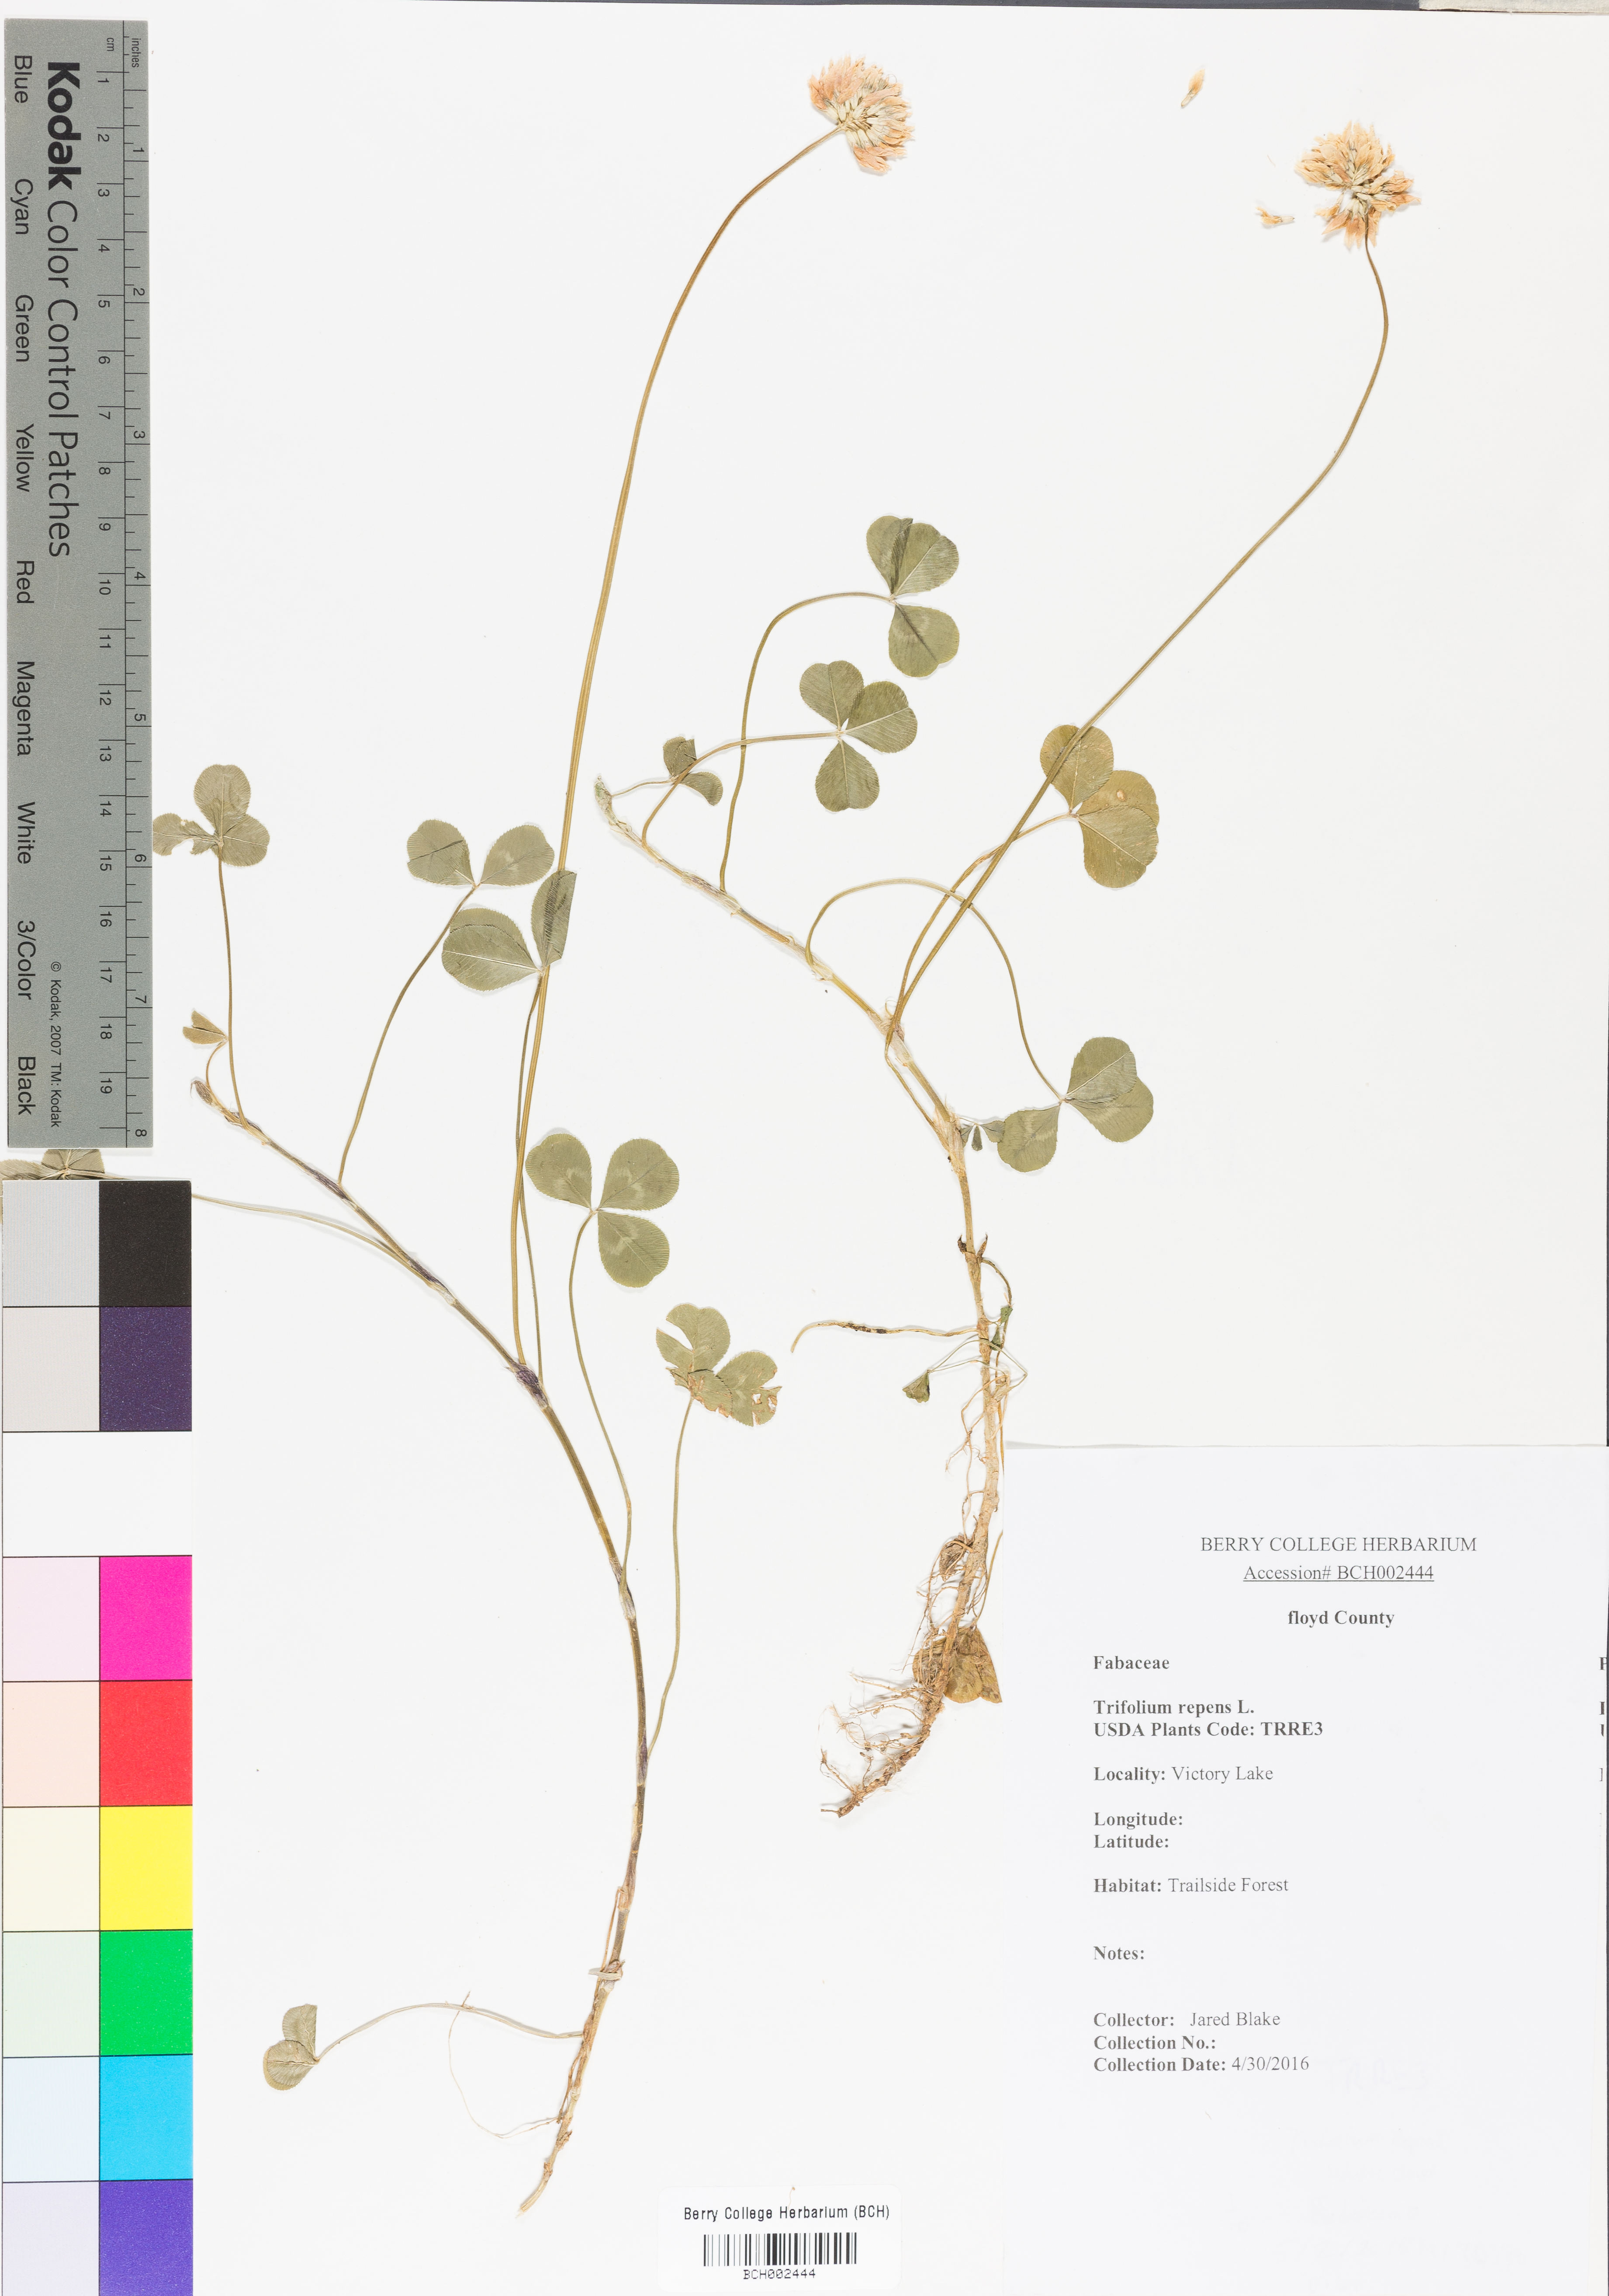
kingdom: Plantae
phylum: Tracheophyta
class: Magnoliopsida
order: Fabales
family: Fabaceae
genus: Trifolium
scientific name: Trifolium repens
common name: White clover
